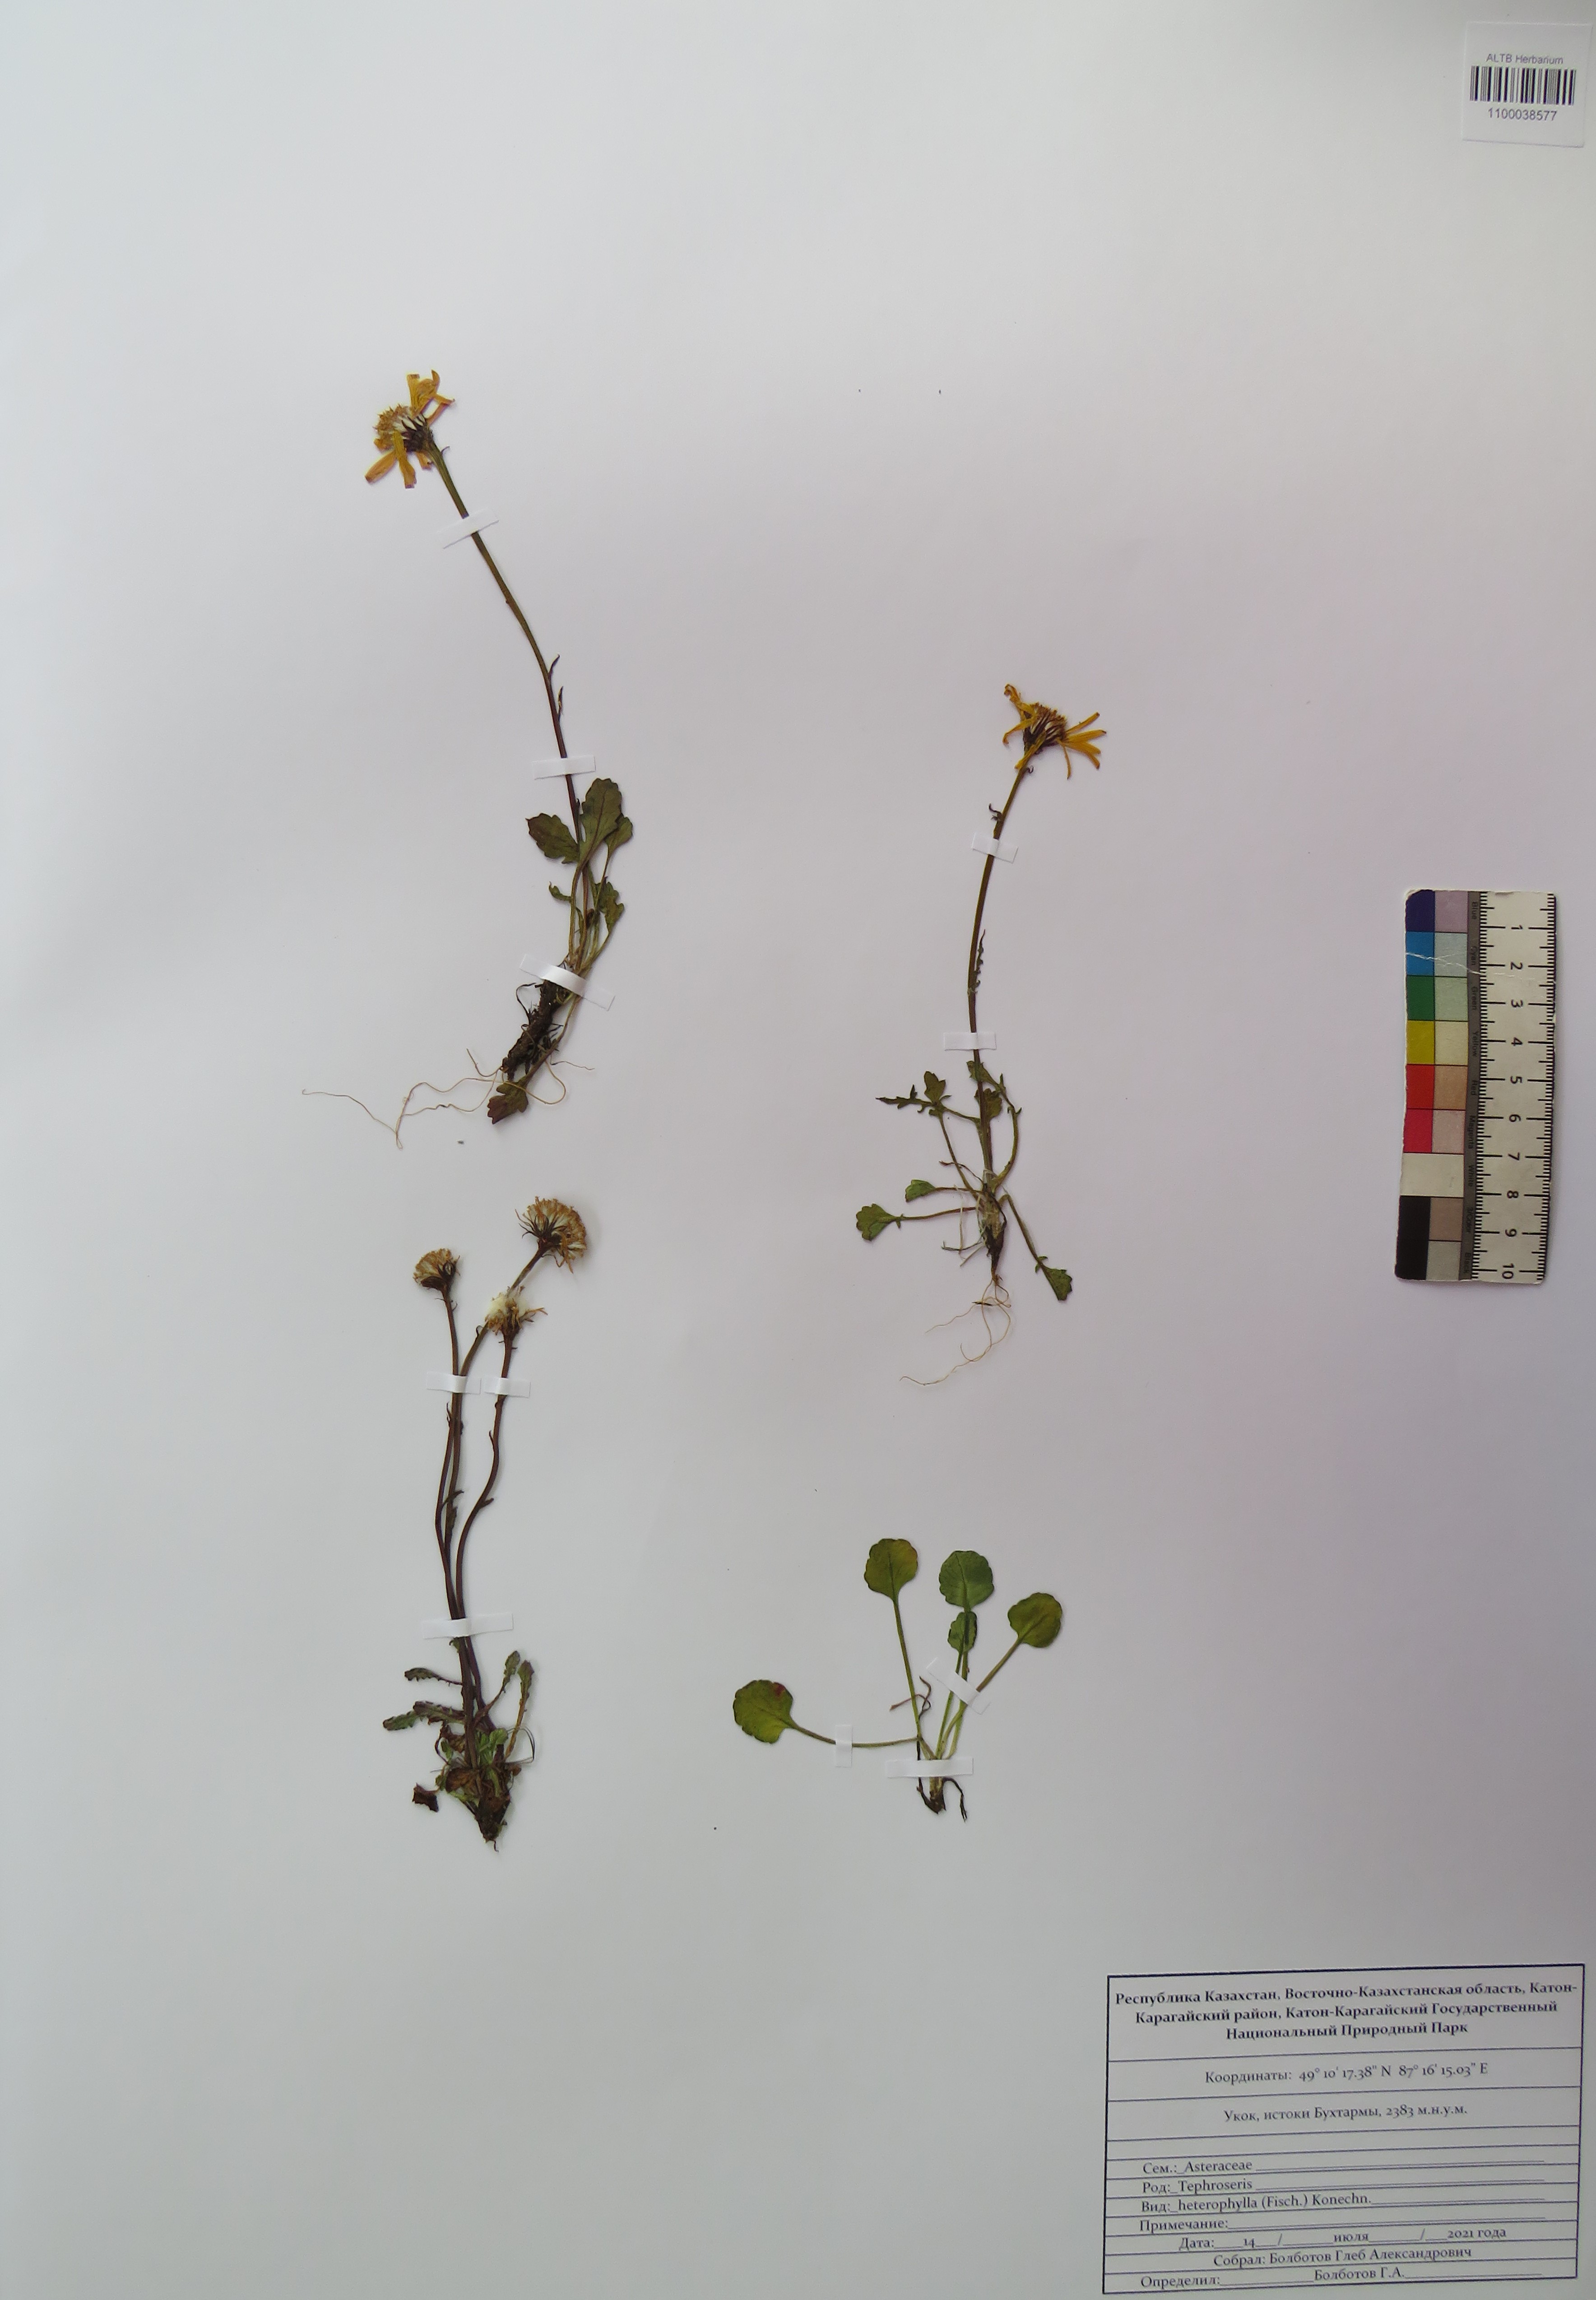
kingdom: Plantae
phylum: Tracheophyta
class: Magnoliopsida
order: Asterales
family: Asteraceae
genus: Packera
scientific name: Packera heterophylla
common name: Arctic butterweed
